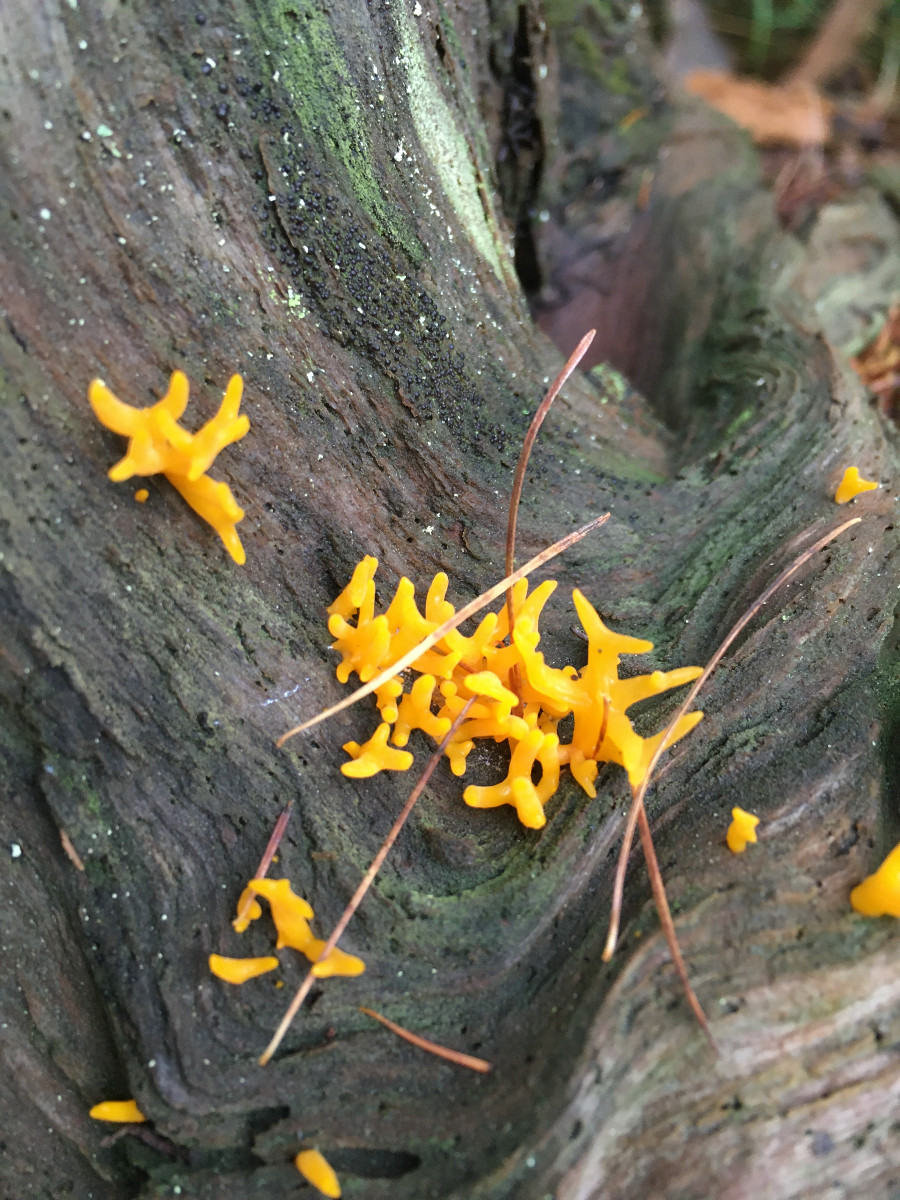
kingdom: Fungi
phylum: Basidiomycota
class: Dacrymycetes
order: Dacrymycetales
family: Dacrymycetaceae
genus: Calocera
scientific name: Calocera furcata
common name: fyrre-guldgaffel
